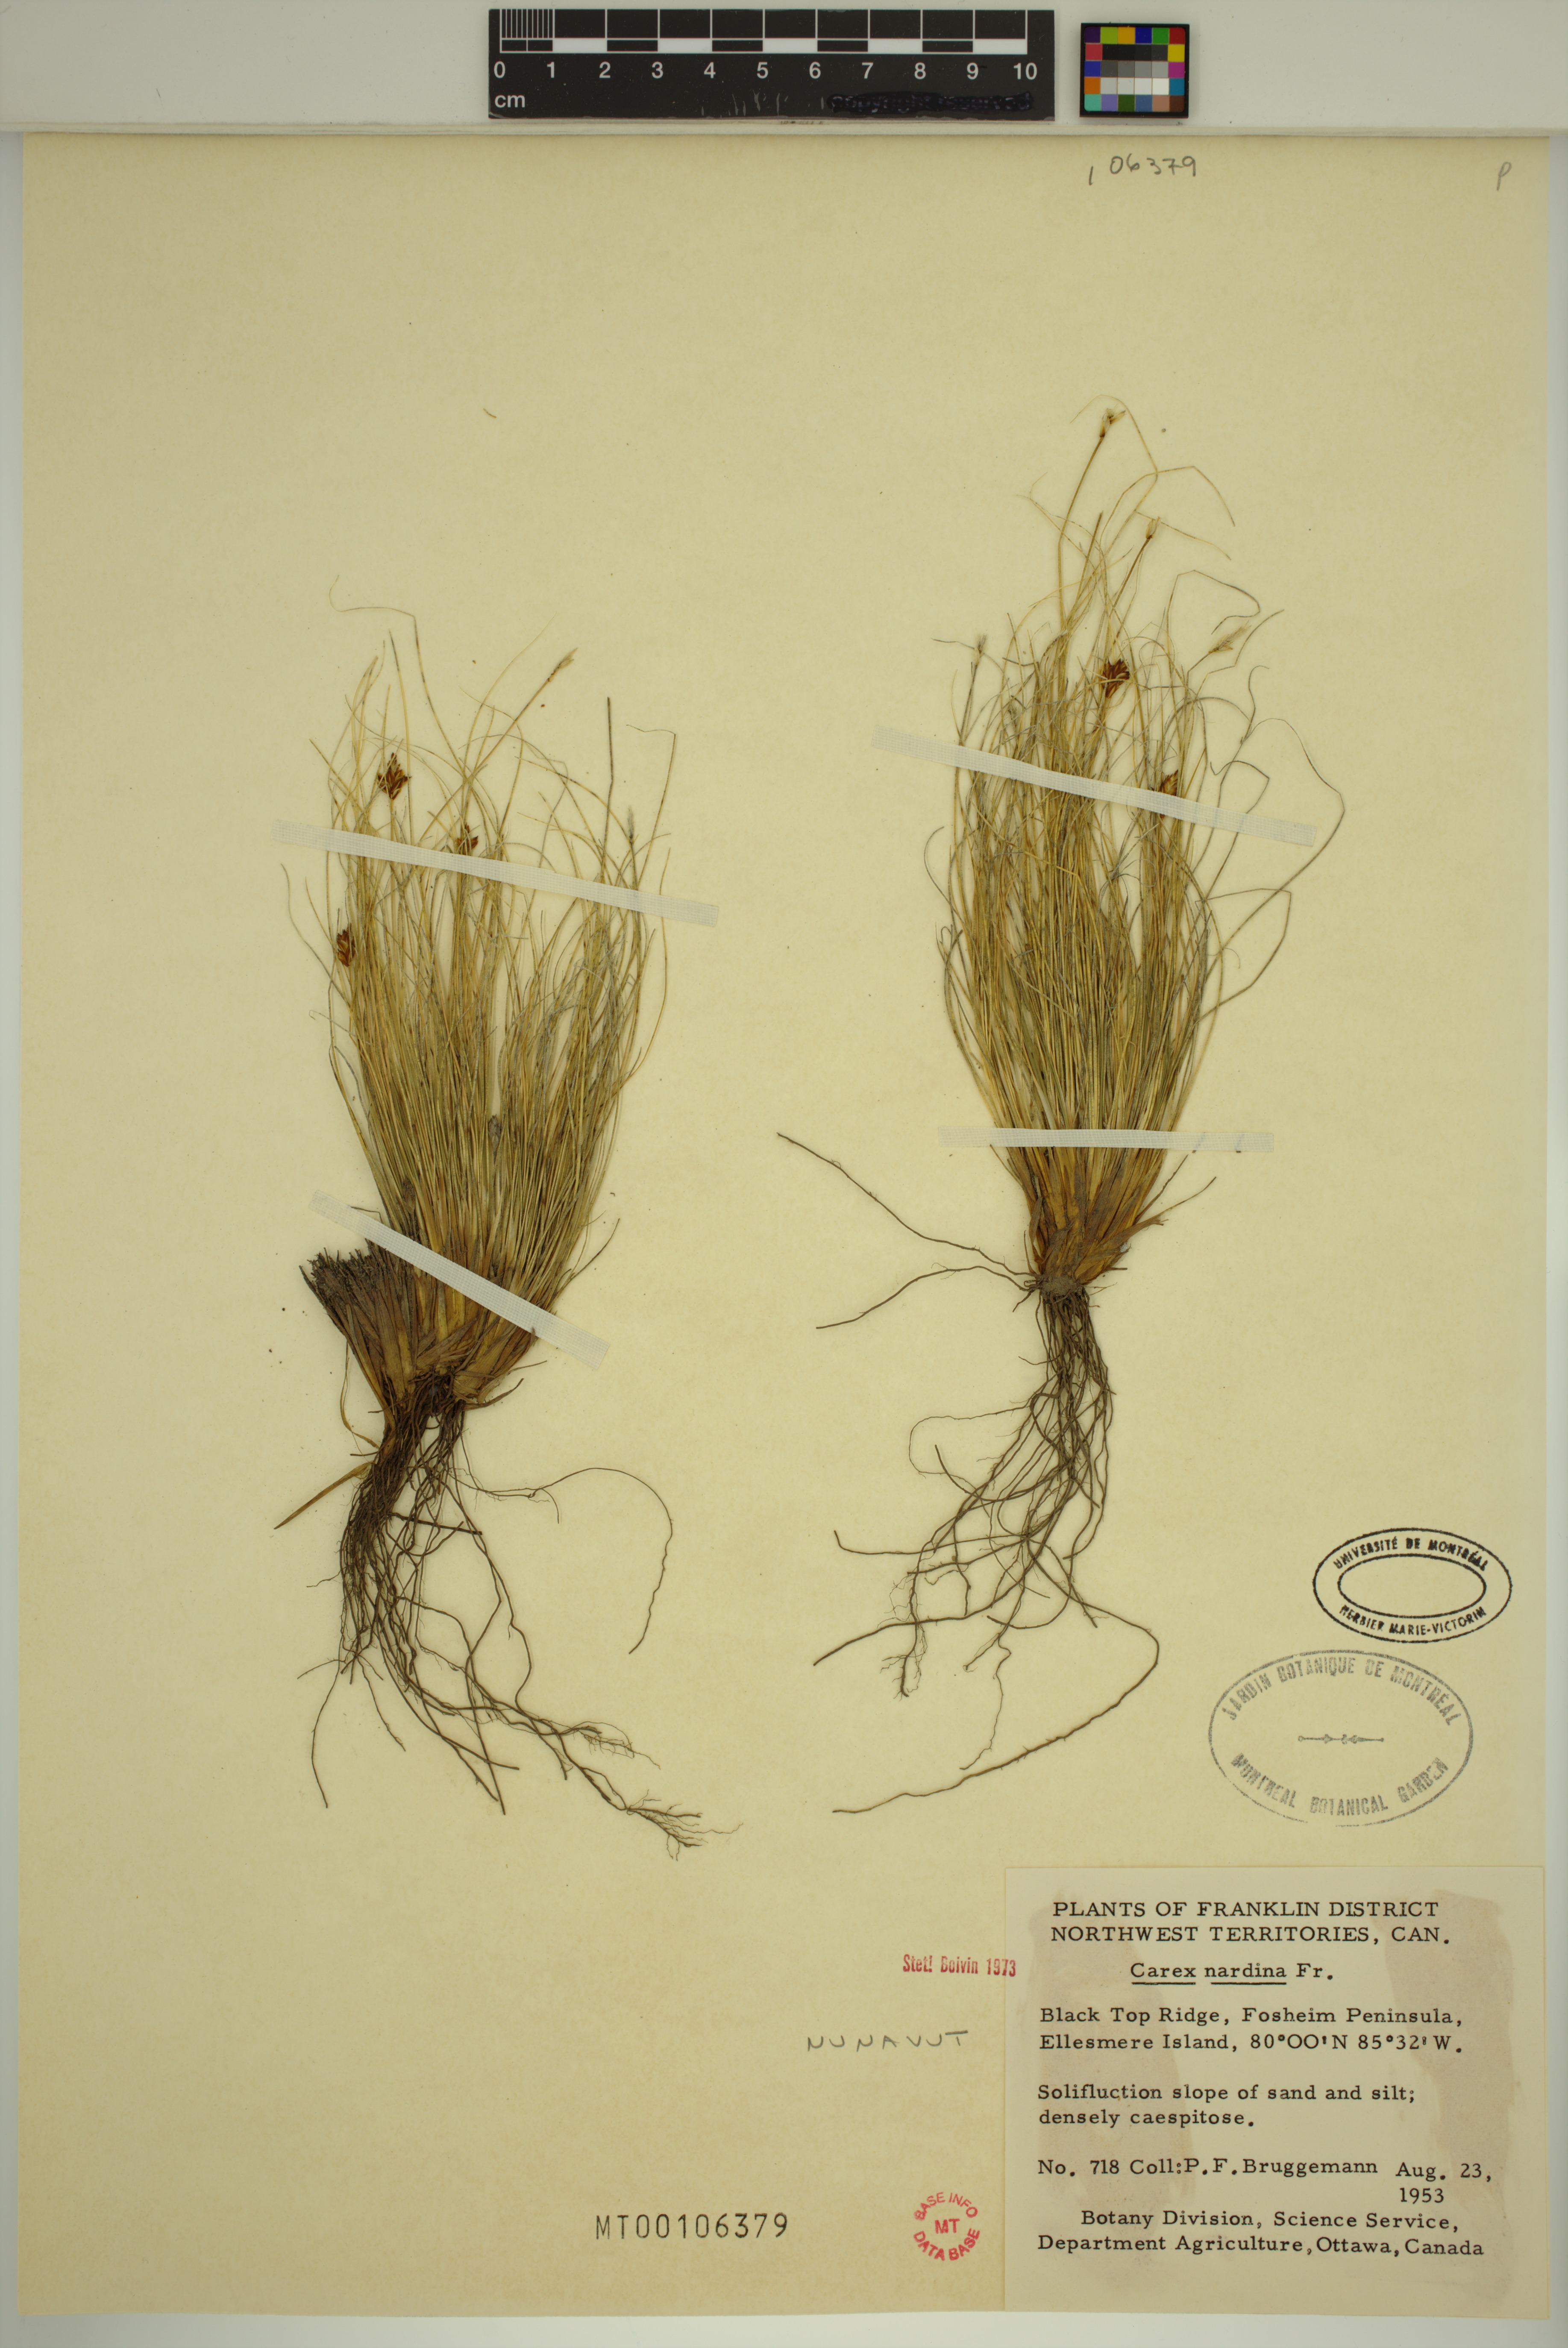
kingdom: Plantae
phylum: Tracheophyta
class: Liliopsida
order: Poales
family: Cyperaceae
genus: Carex
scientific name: Carex nardina
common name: Nard sedge
